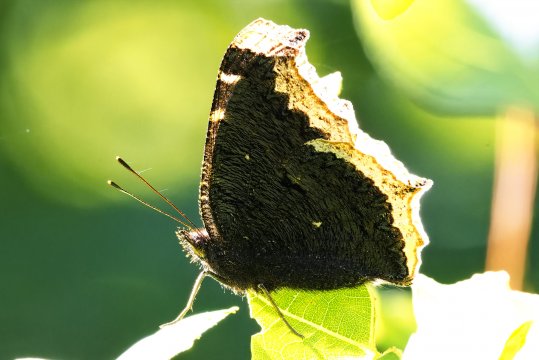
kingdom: Animalia
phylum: Arthropoda
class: Insecta
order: Lepidoptera
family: Nymphalidae
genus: Nymphalis
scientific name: Nymphalis antiopa
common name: Mourning Cloak
